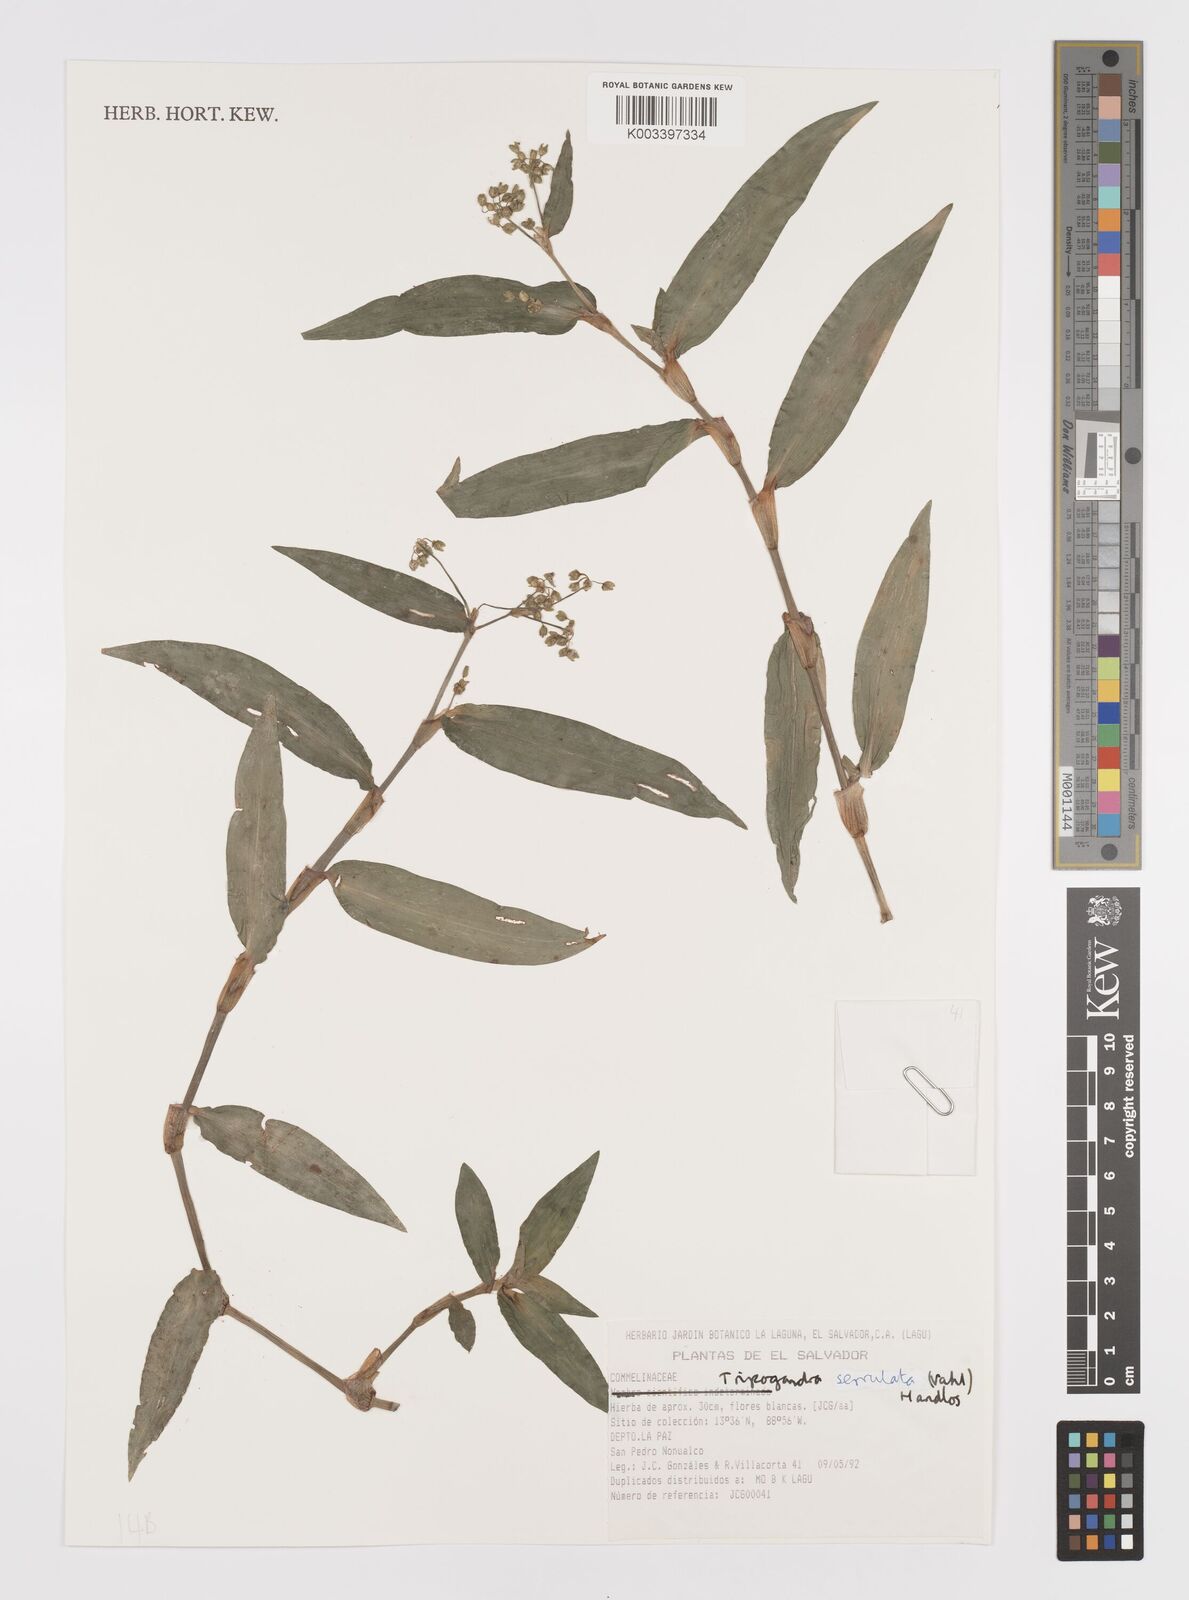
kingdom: Plantae
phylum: Tracheophyta
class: Liliopsida
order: Commelinales
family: Commelinaceae
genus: Callisia
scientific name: Callisia serrulata
